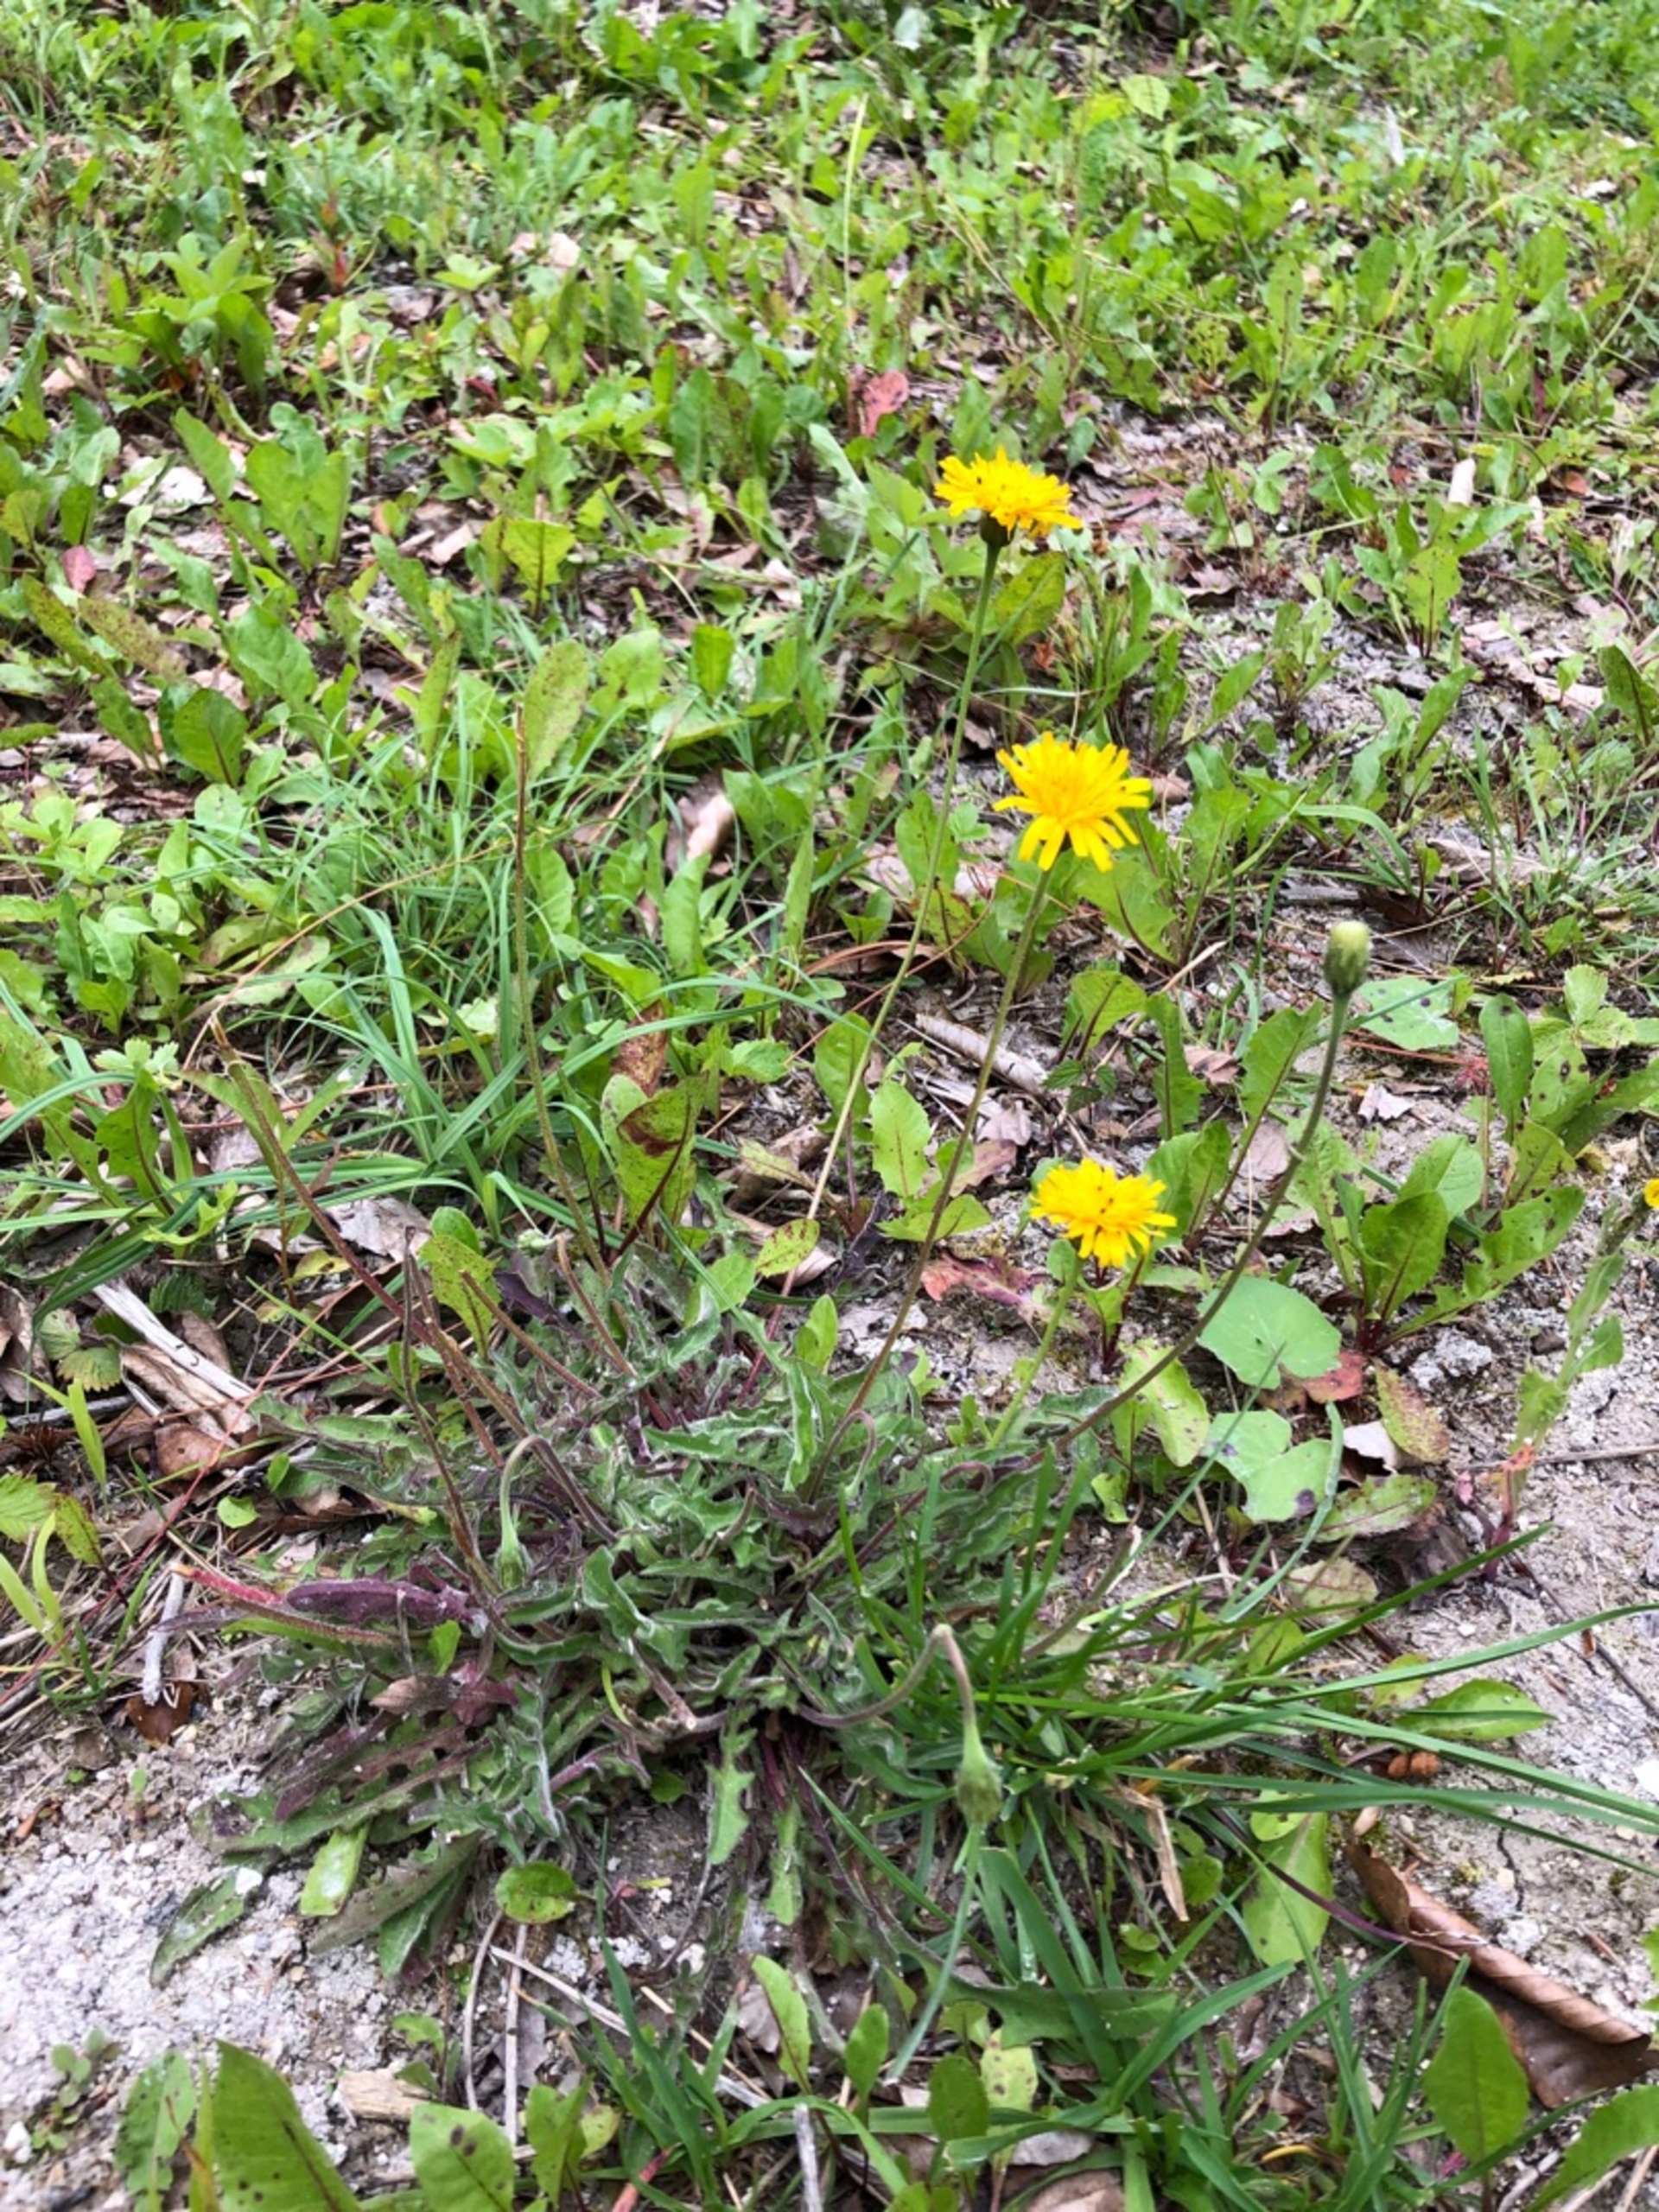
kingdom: Plantae
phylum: Tracheophyta
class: Magnoliopsida
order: Asterales
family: Asteraceae
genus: Leontodon
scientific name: Leontodon hispidus
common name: Stivhåret borst
